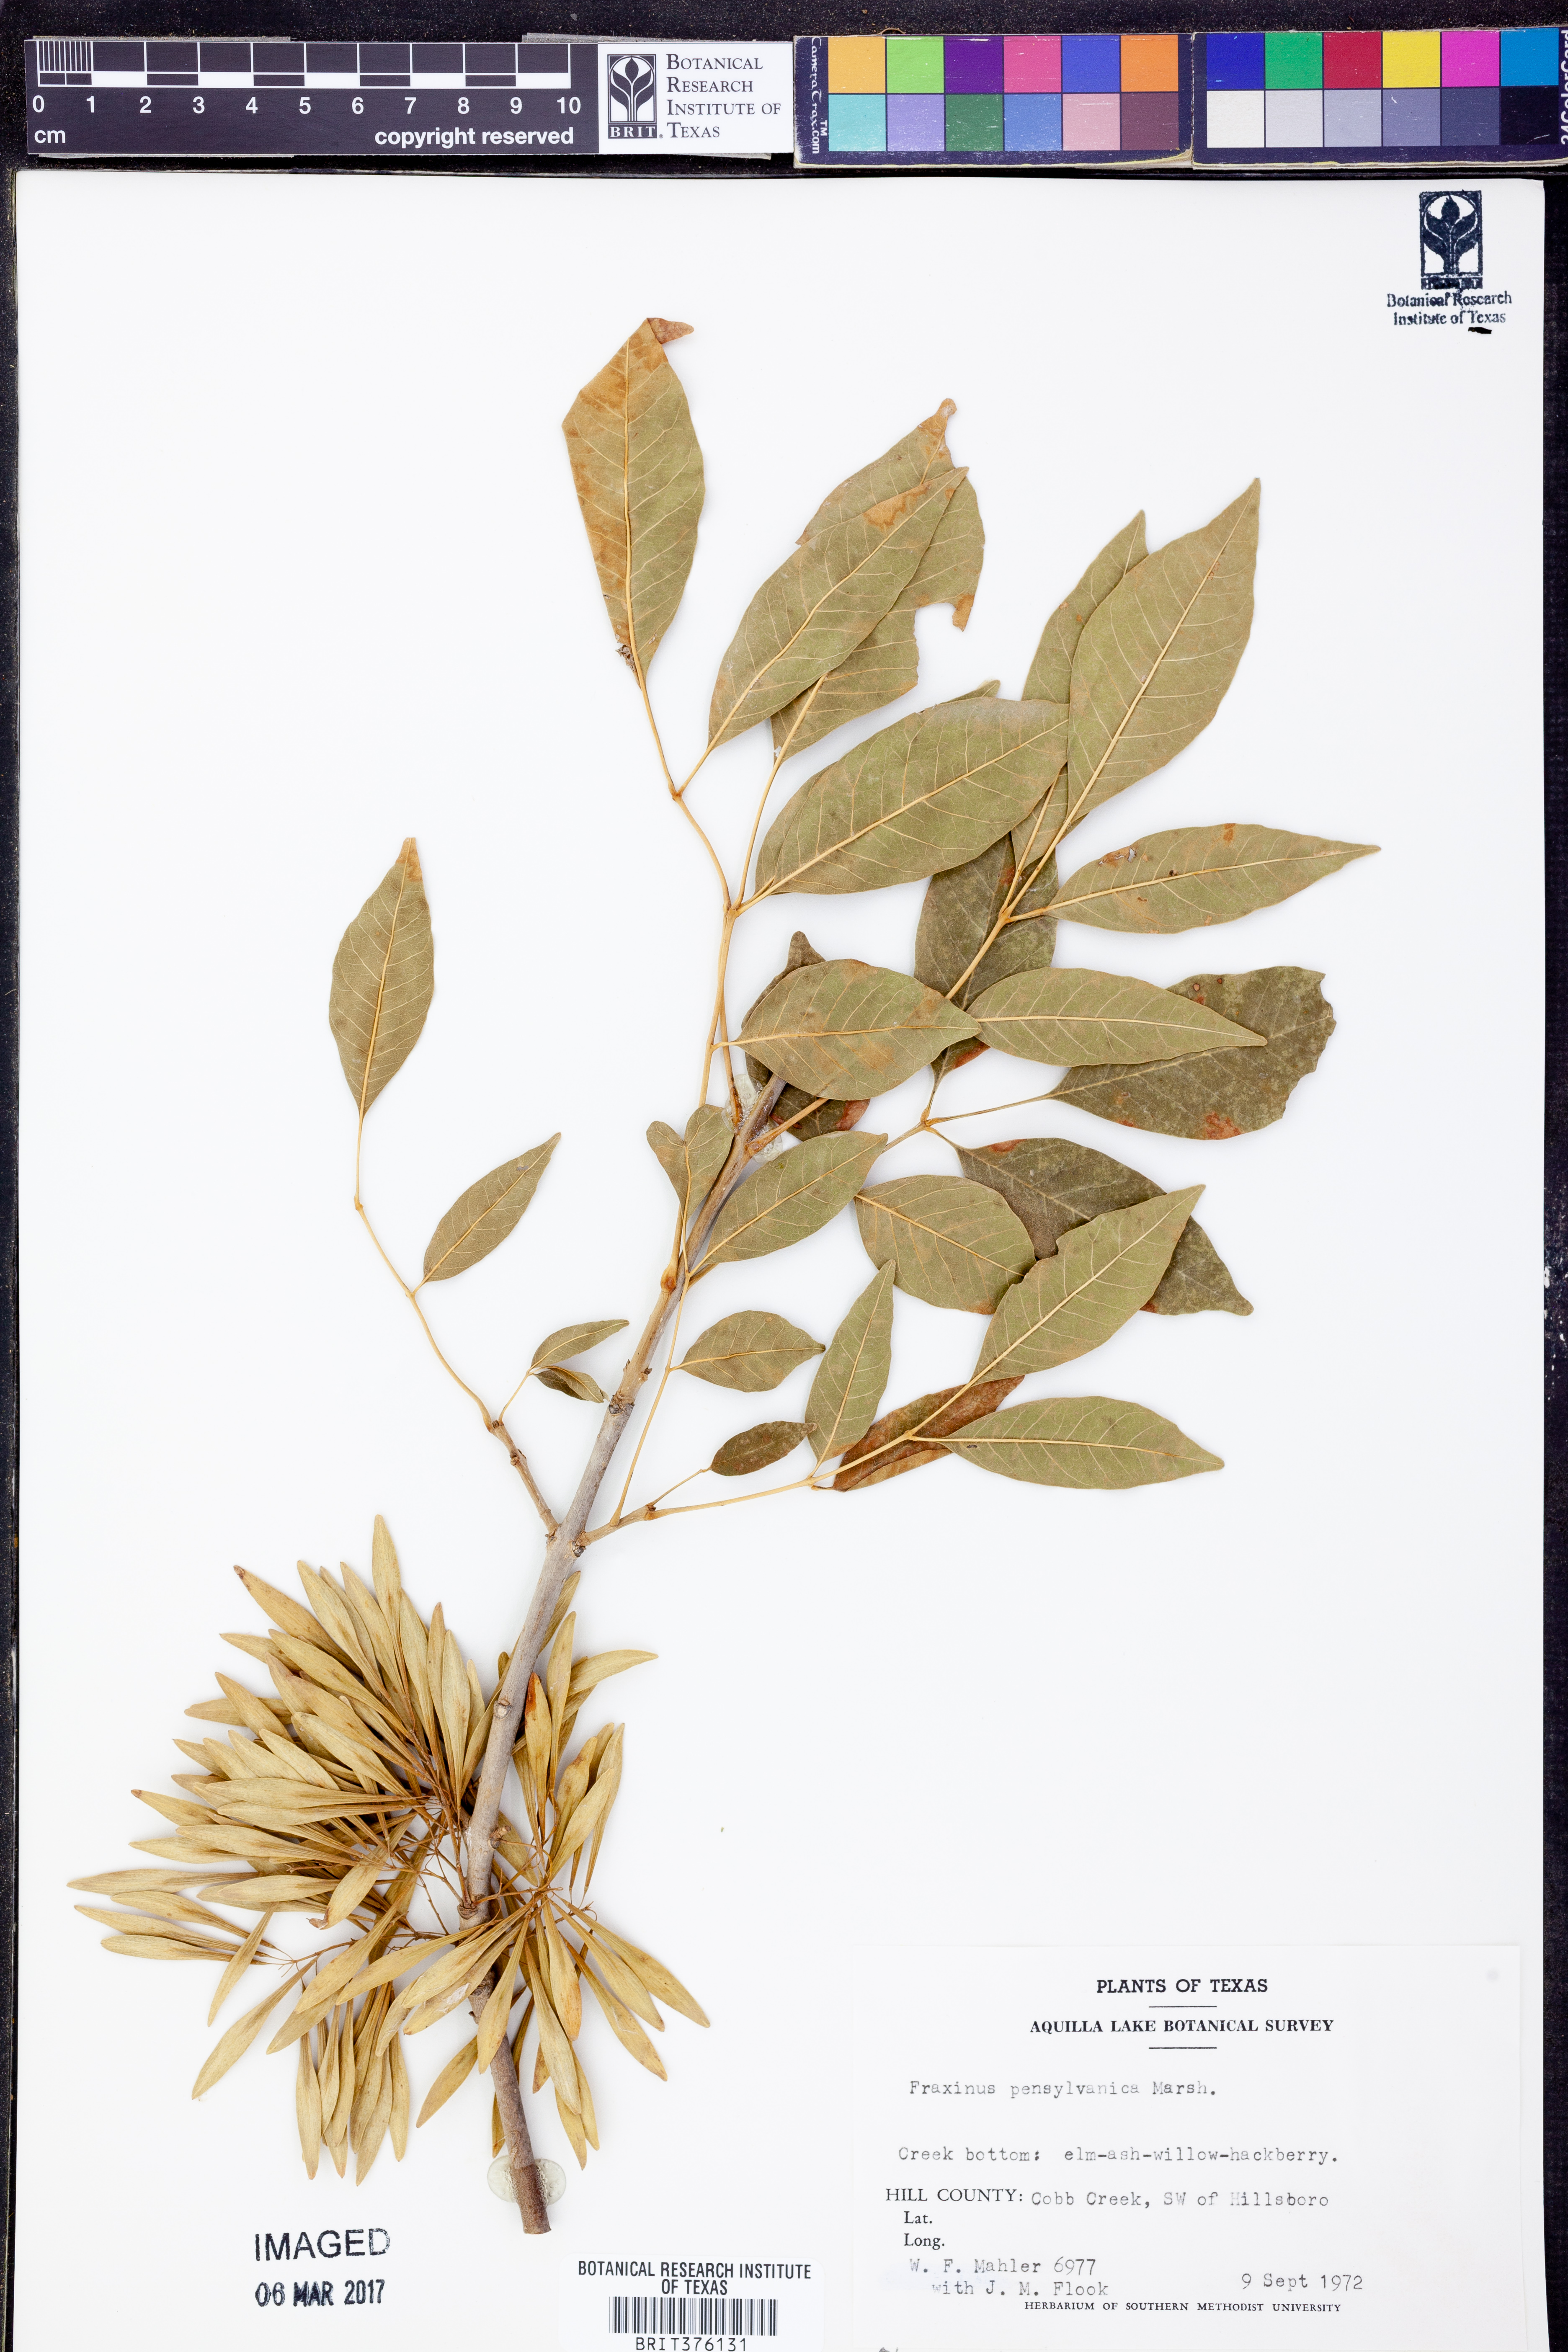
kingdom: Plantae
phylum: Tracheophyta
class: Magnoliopsida
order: Lamiales
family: Oleaceae
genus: Fraxinus
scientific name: Fraxinus pennsylvanica
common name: Green ash
